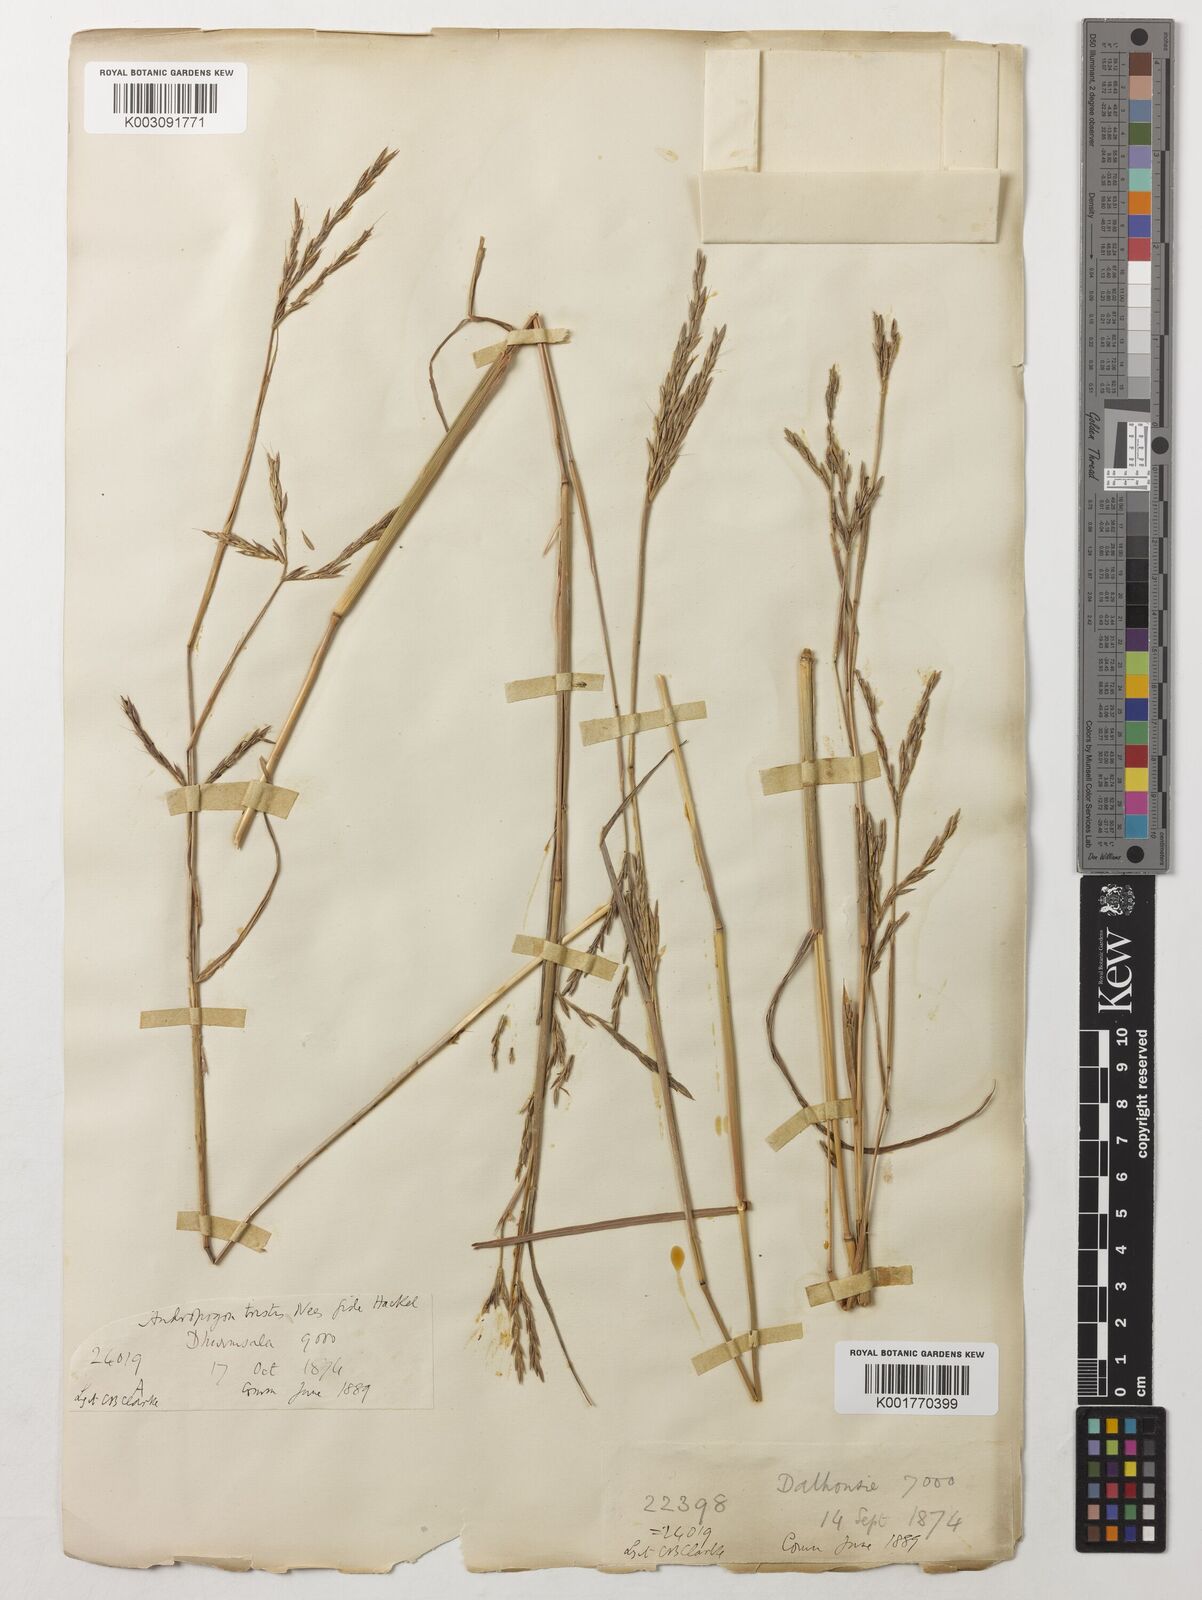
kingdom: Plantae
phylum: Tracheophyta
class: Liliopsida
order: Poales
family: Poaceae
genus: Andropogon
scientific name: Andropogon munroi
